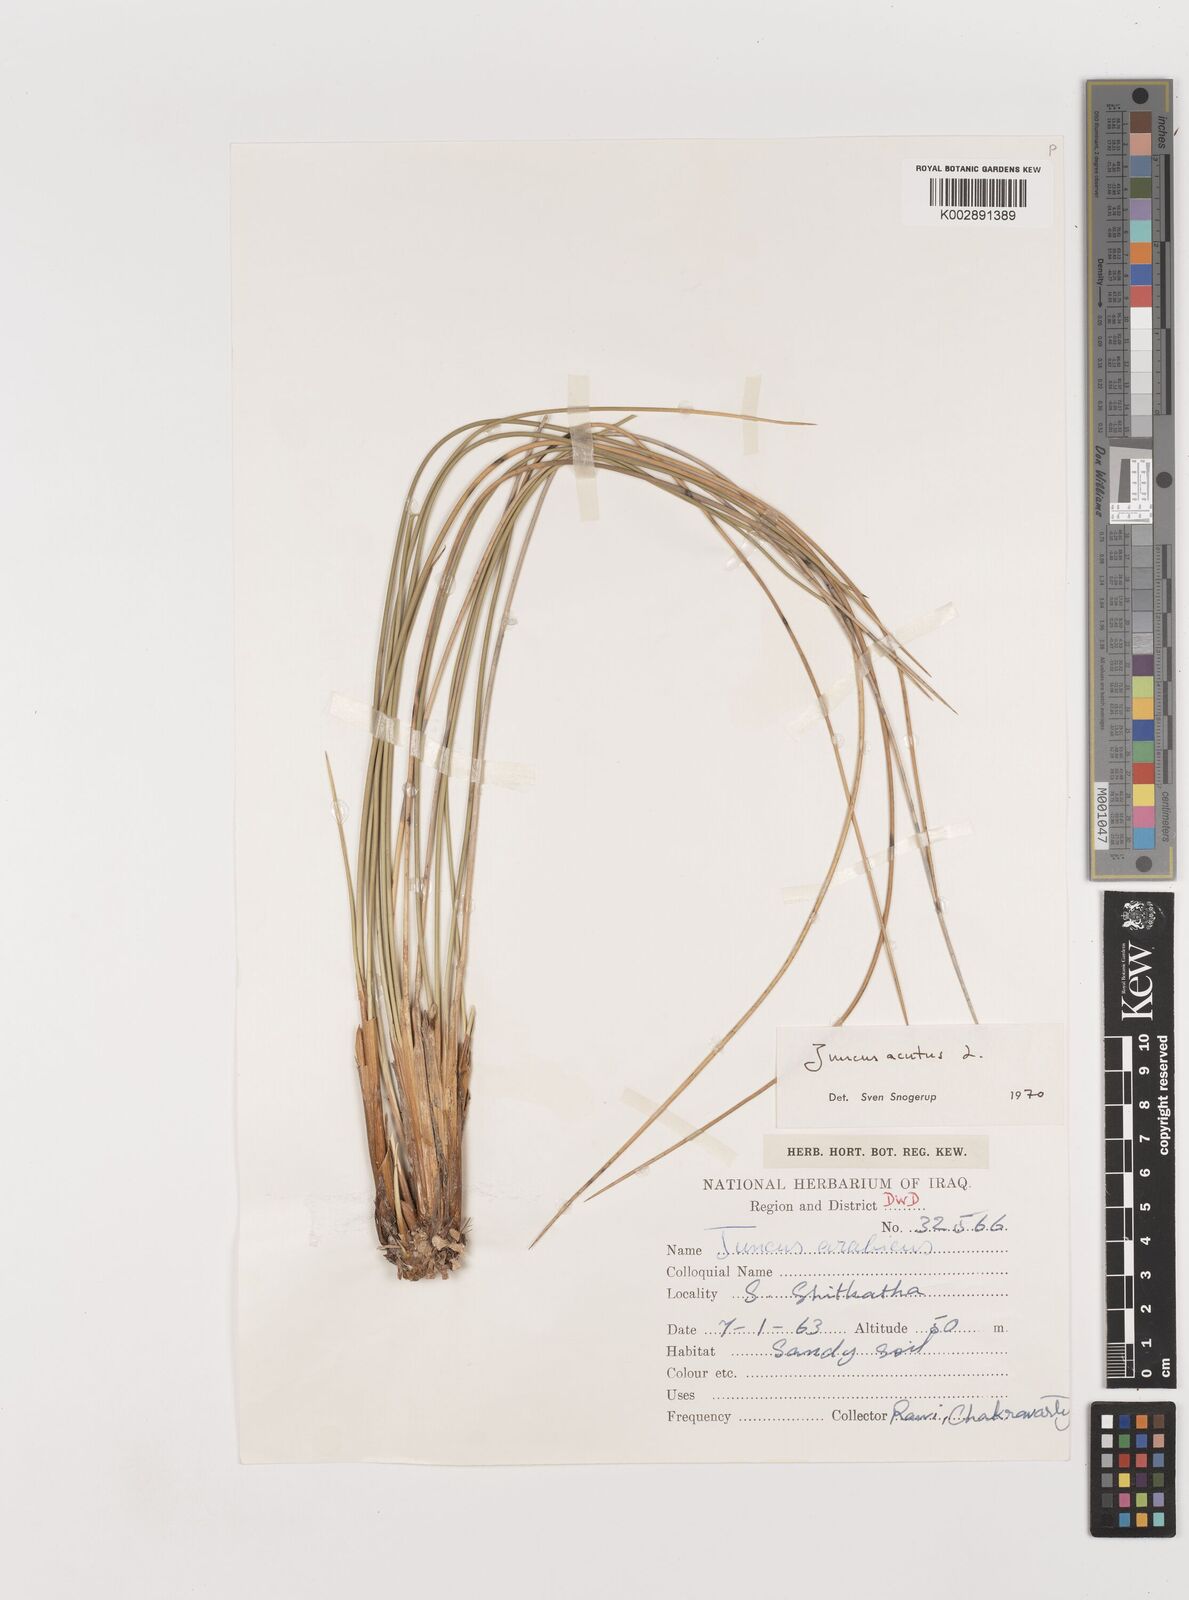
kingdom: Plantae
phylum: Tracheophyta
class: Liliopsida
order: Poales
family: Juncaceae
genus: Juncus
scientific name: Juncus acutus
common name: Sharp rush
